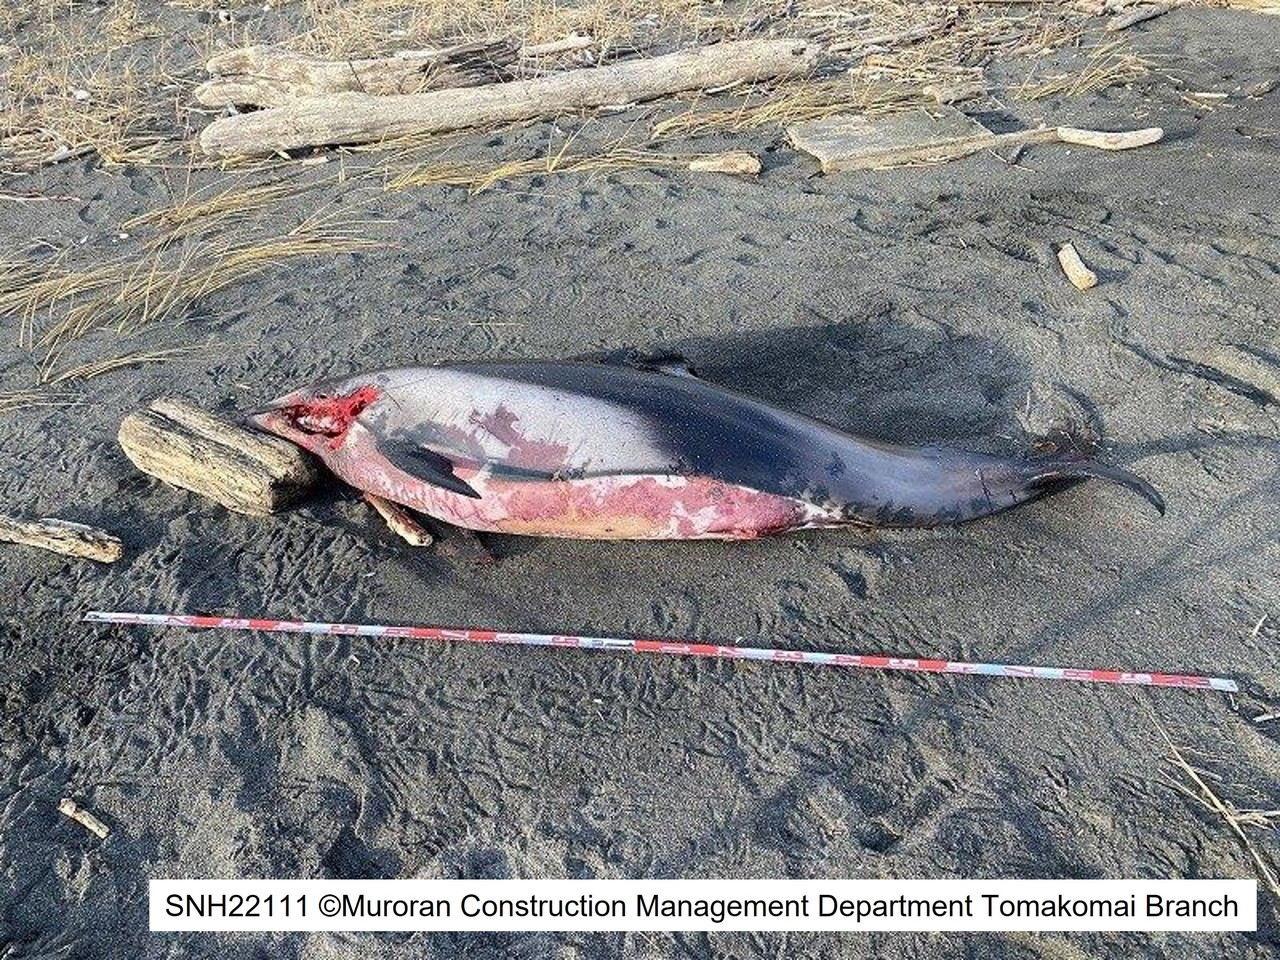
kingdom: Animalia
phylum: Chordata
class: Mammalia
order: Cetacea
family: Delphinidae
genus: Lagenorhynchus
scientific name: Lagenorhynchus obliquidens
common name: Pacific white-sided dolphin
